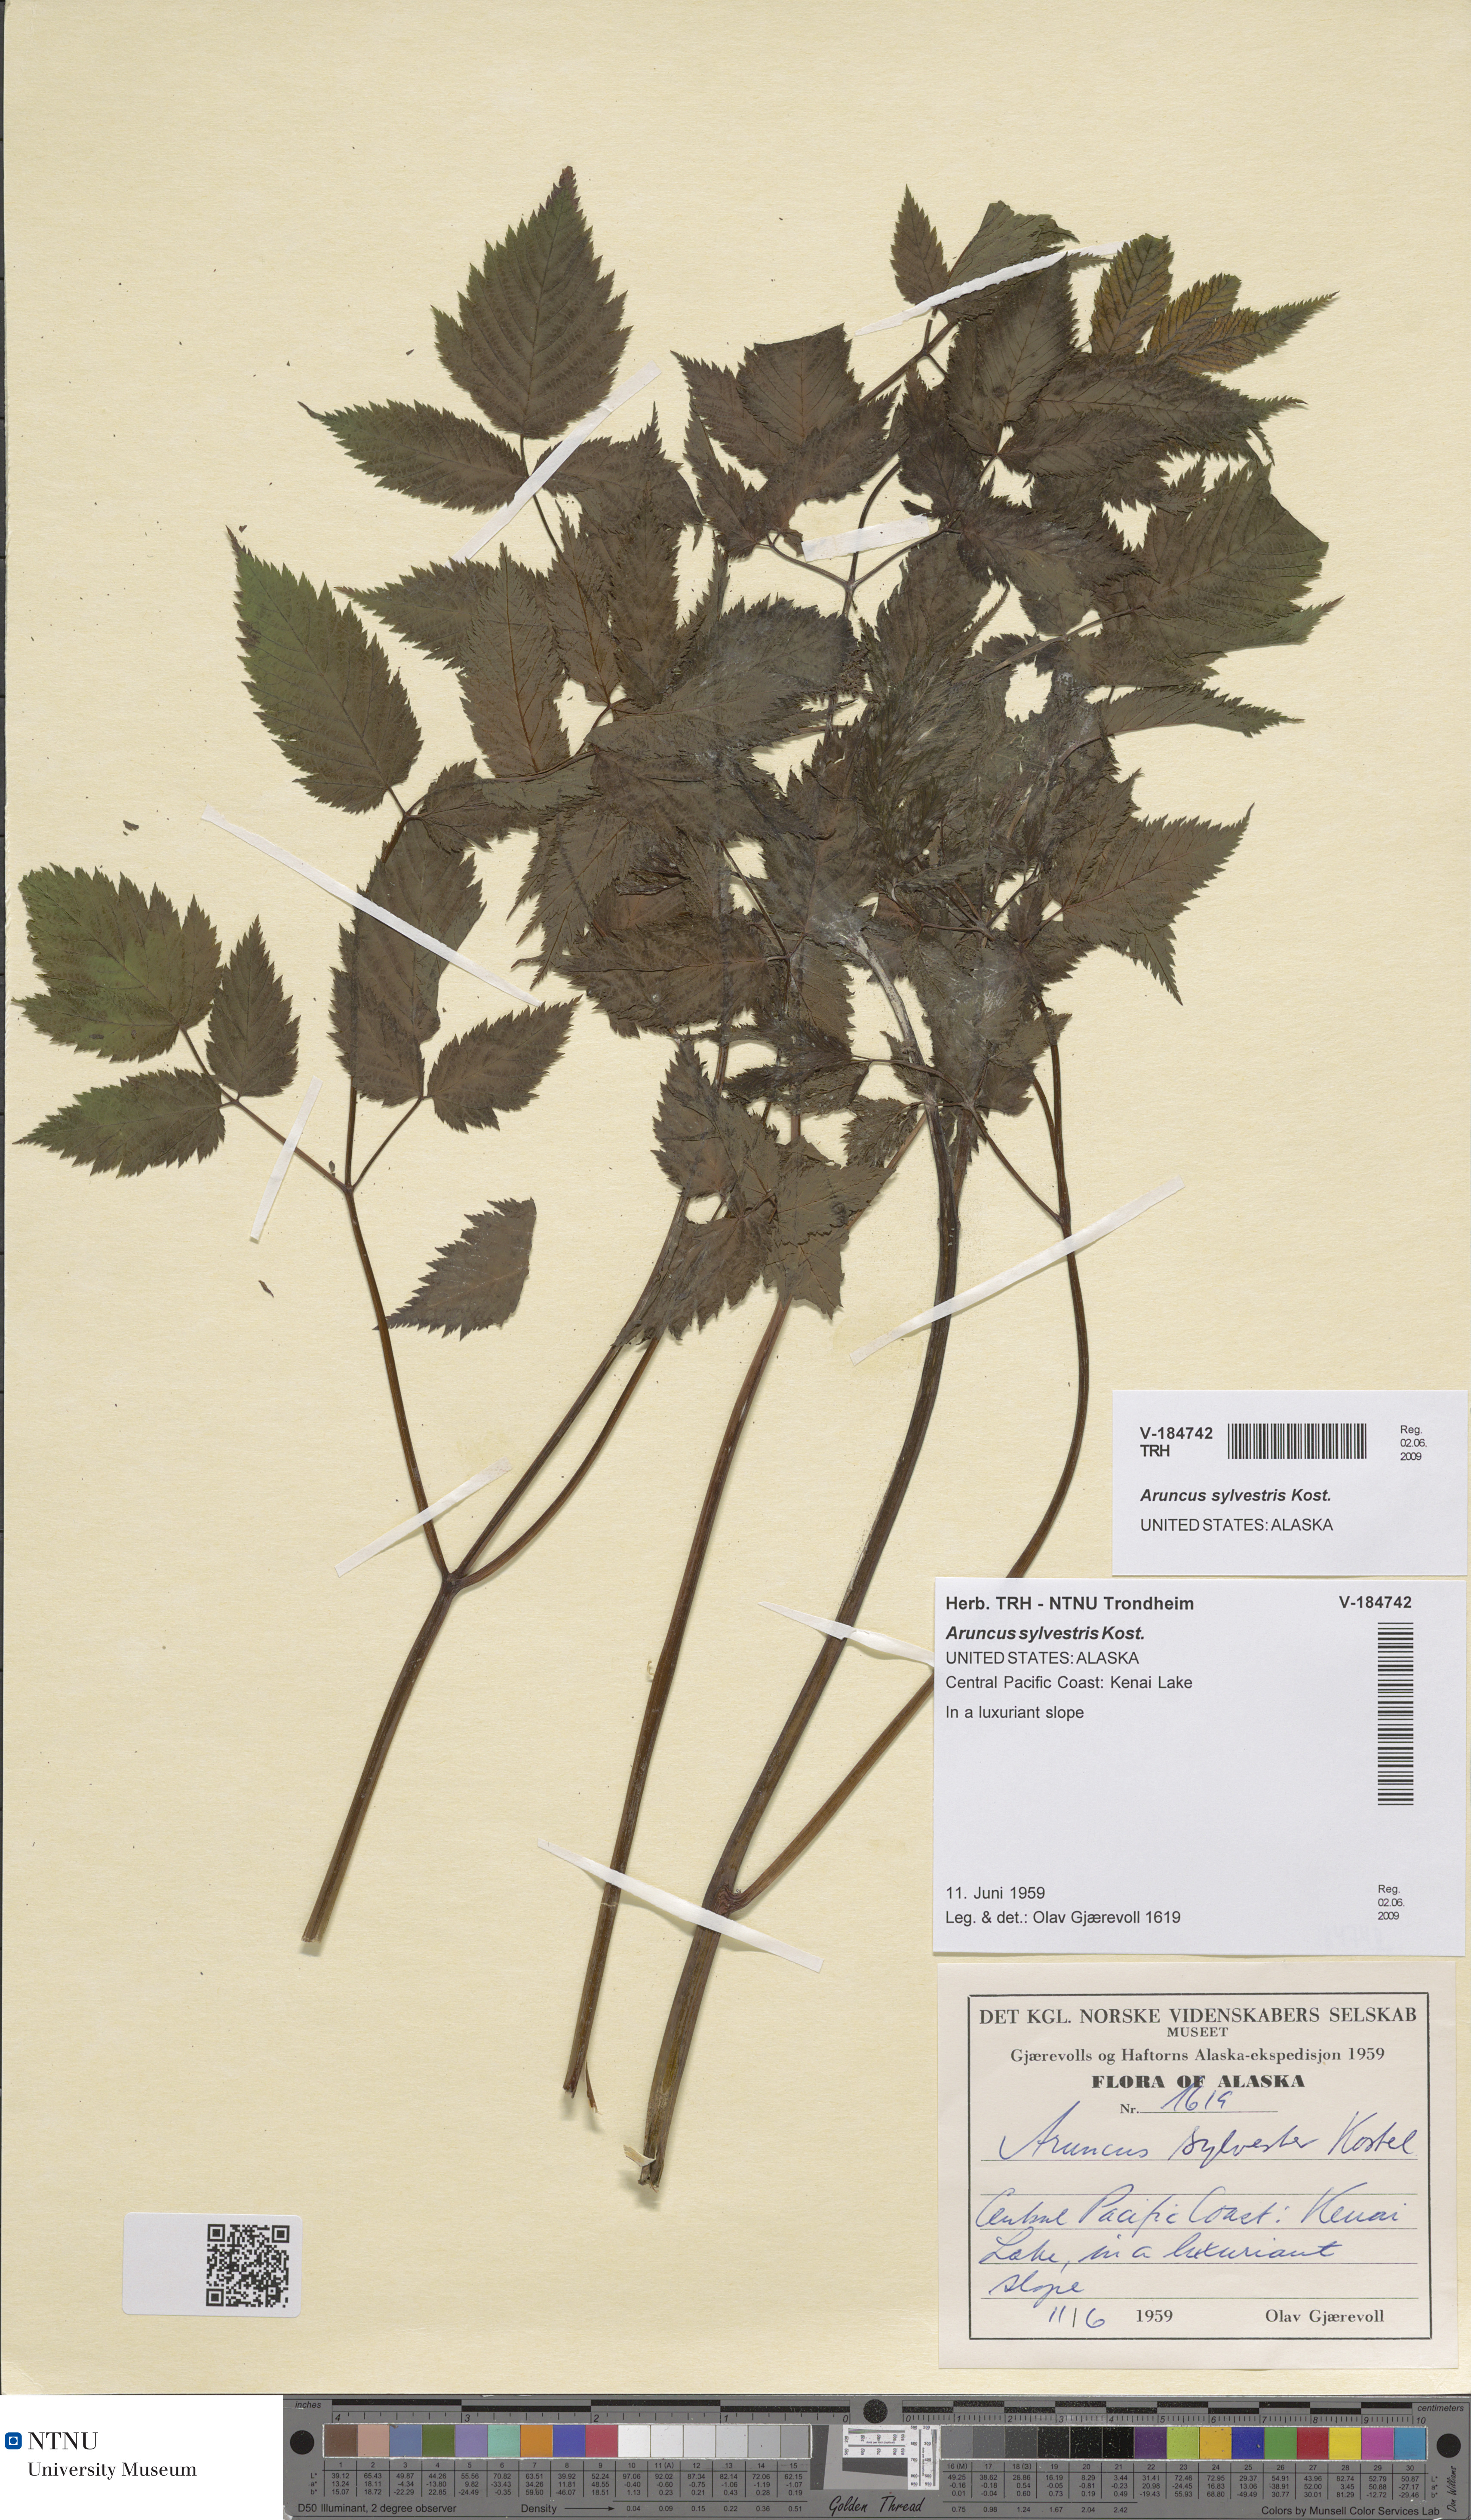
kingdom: Plantae
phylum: Tracheophyta
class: Magnoliopsida
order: Rosales
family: Rosaceae
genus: Aruncus
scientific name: Aruncus sylvester
